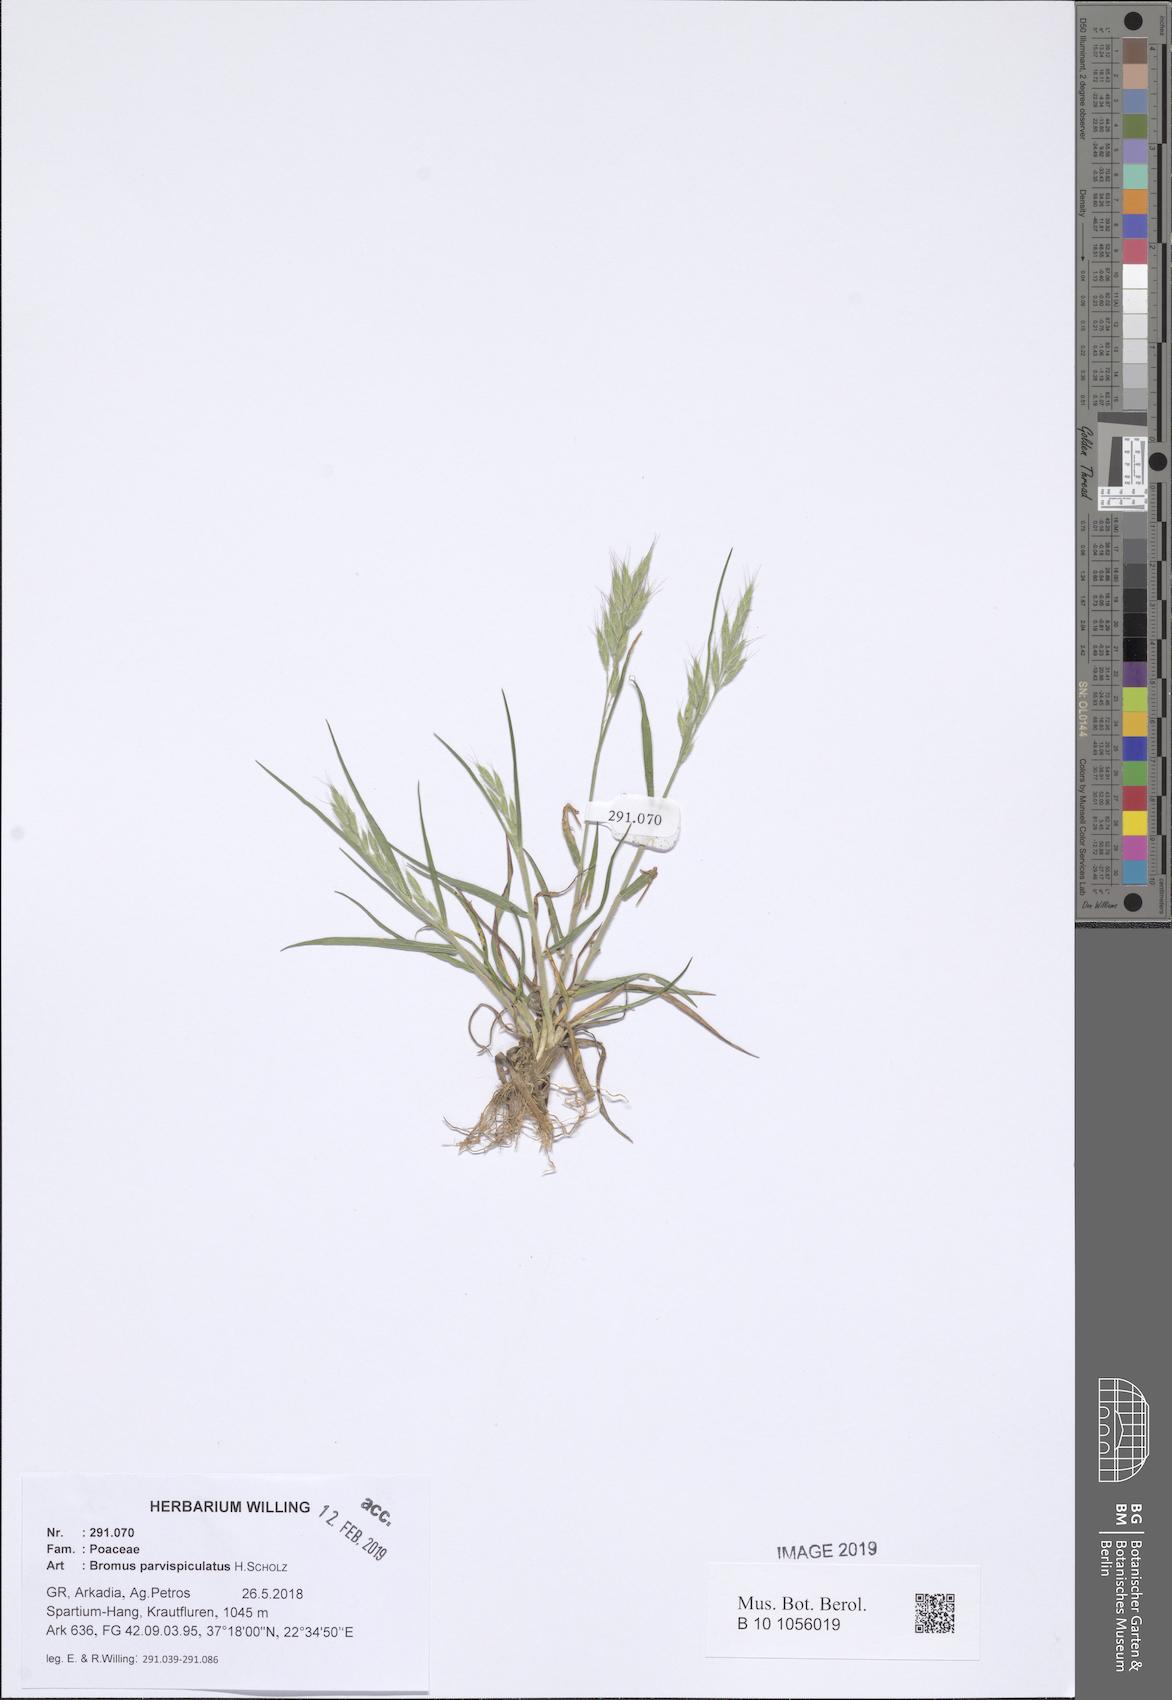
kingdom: Plantae
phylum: Tracheophyta
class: Liliopsida
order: Poales
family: Poaceae
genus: Bromus
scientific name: Bromus hordeaceus
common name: Soft brome
